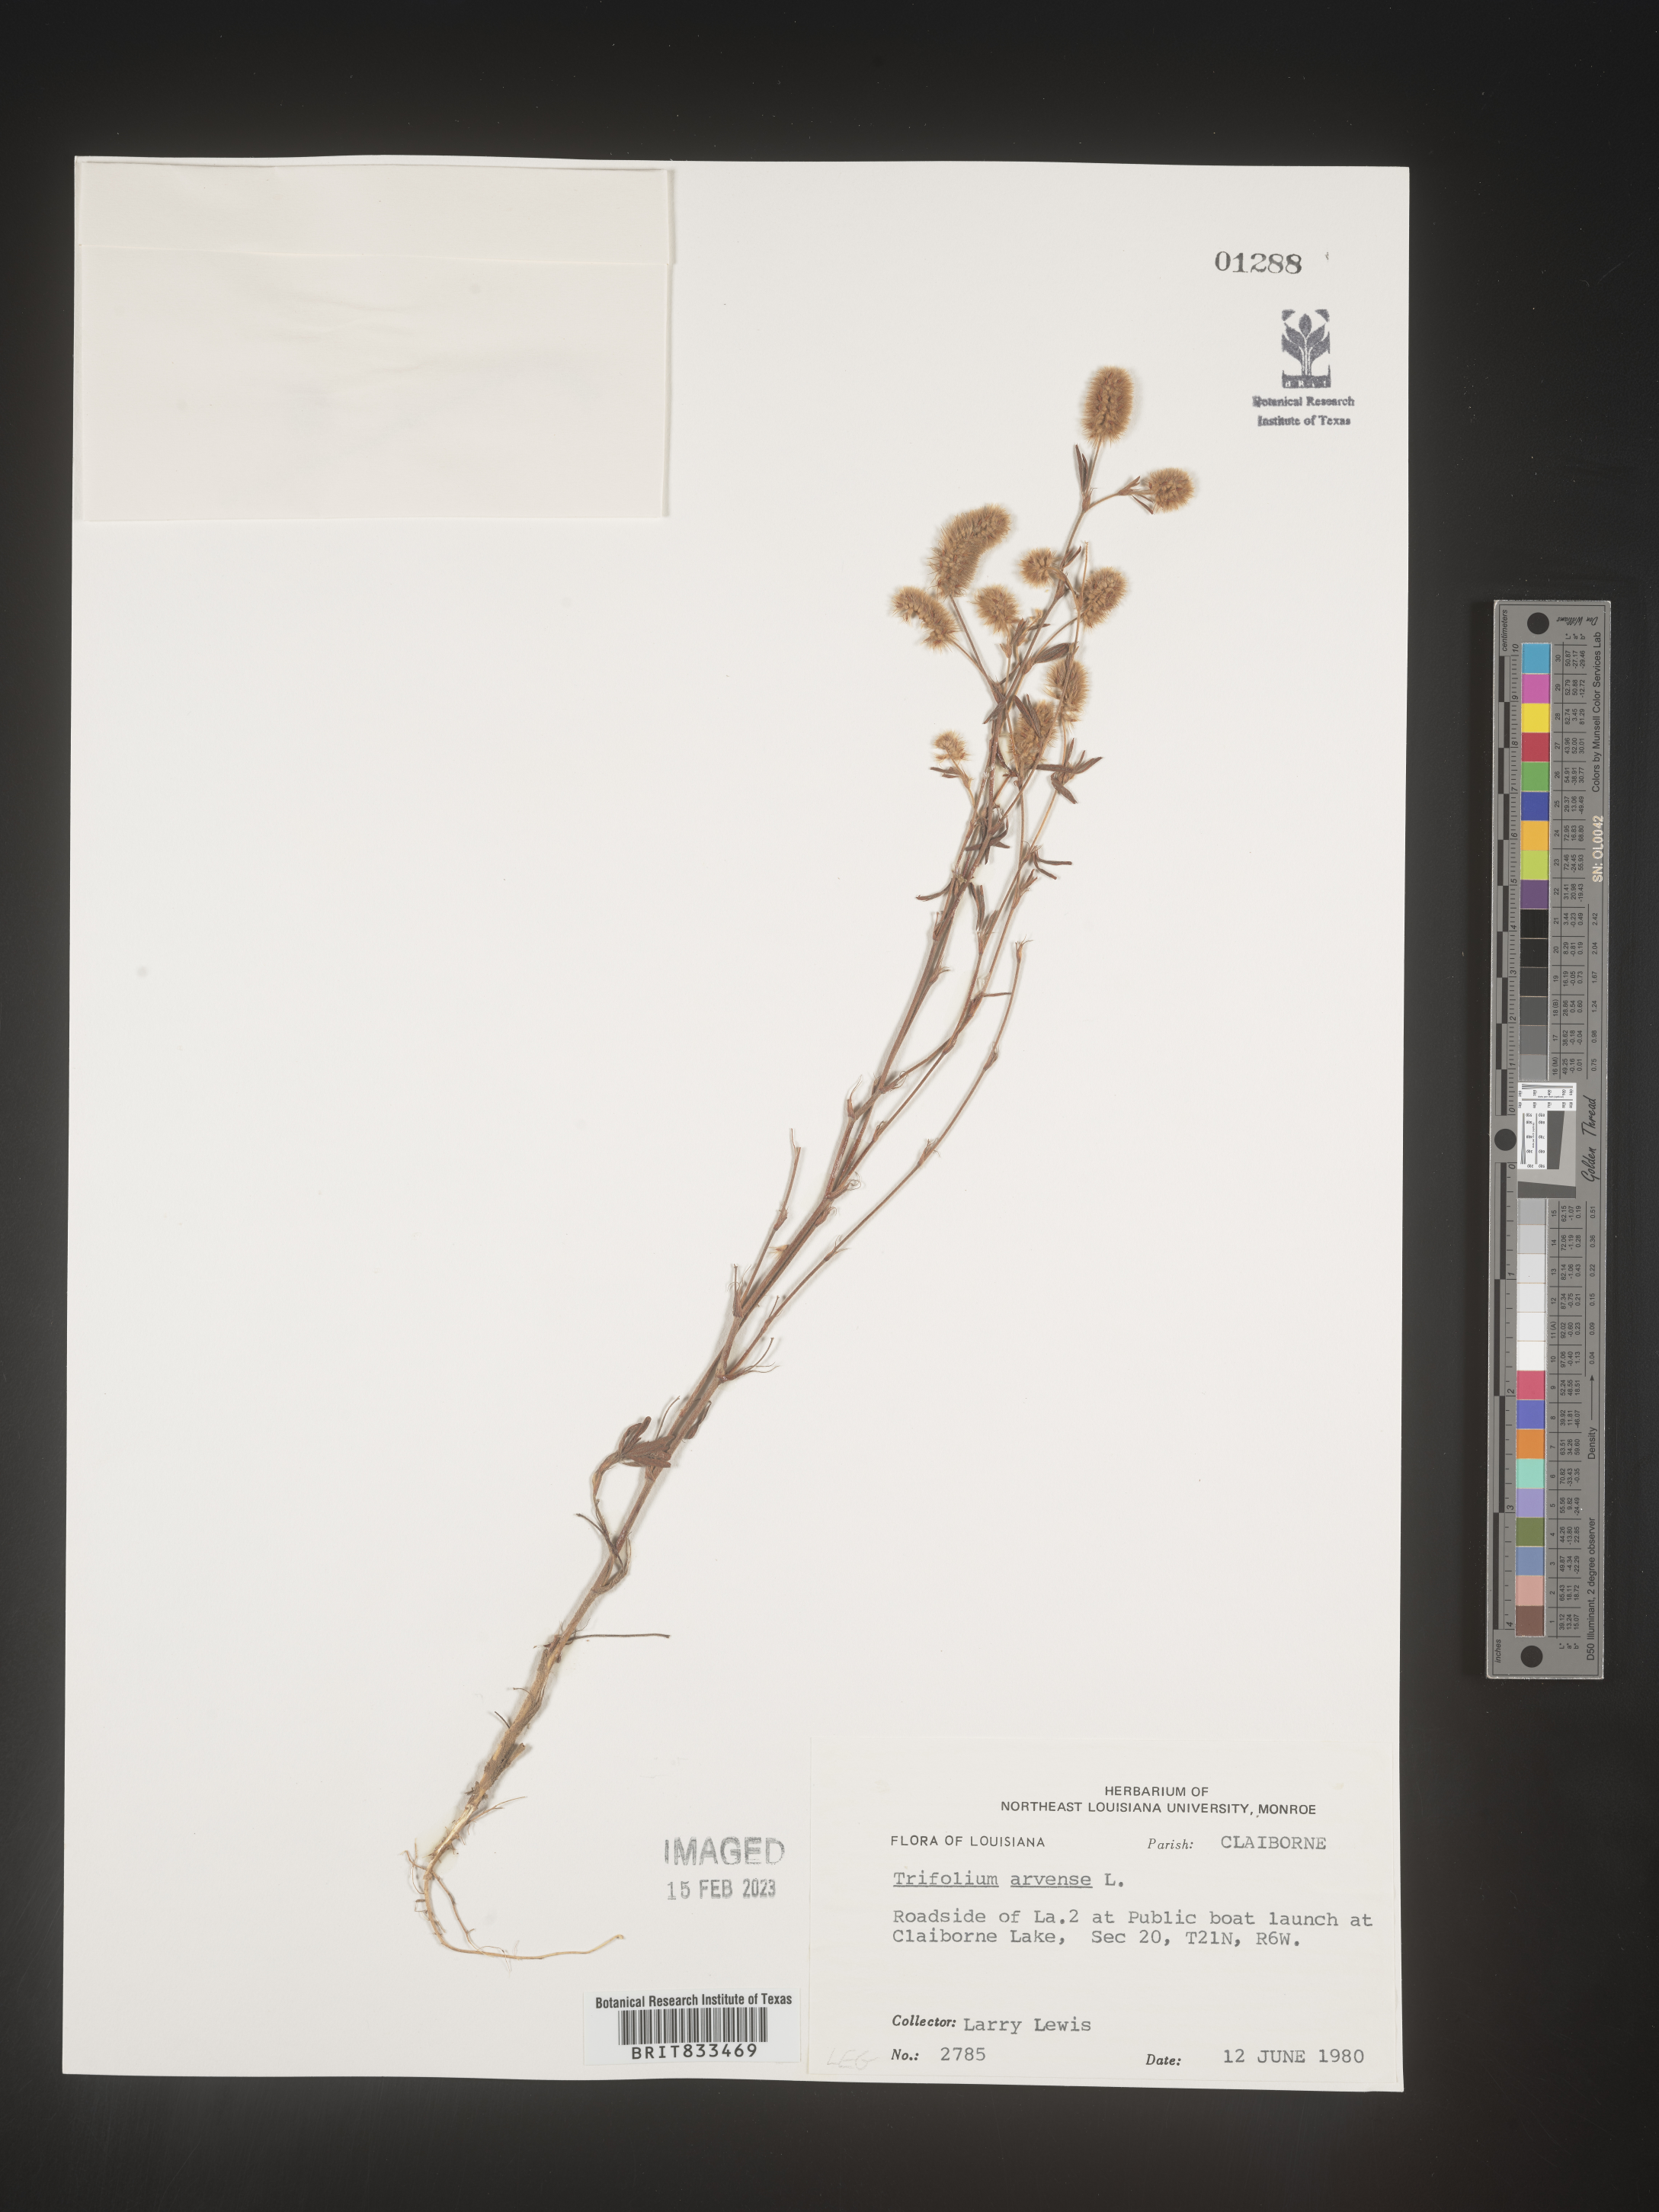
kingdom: Plantae
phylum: Tracheophyta
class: Magnoliopsida
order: Fabales
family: Fabaceae
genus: Trifolium
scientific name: Trifolium arvense
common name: Hare's-foot clover
